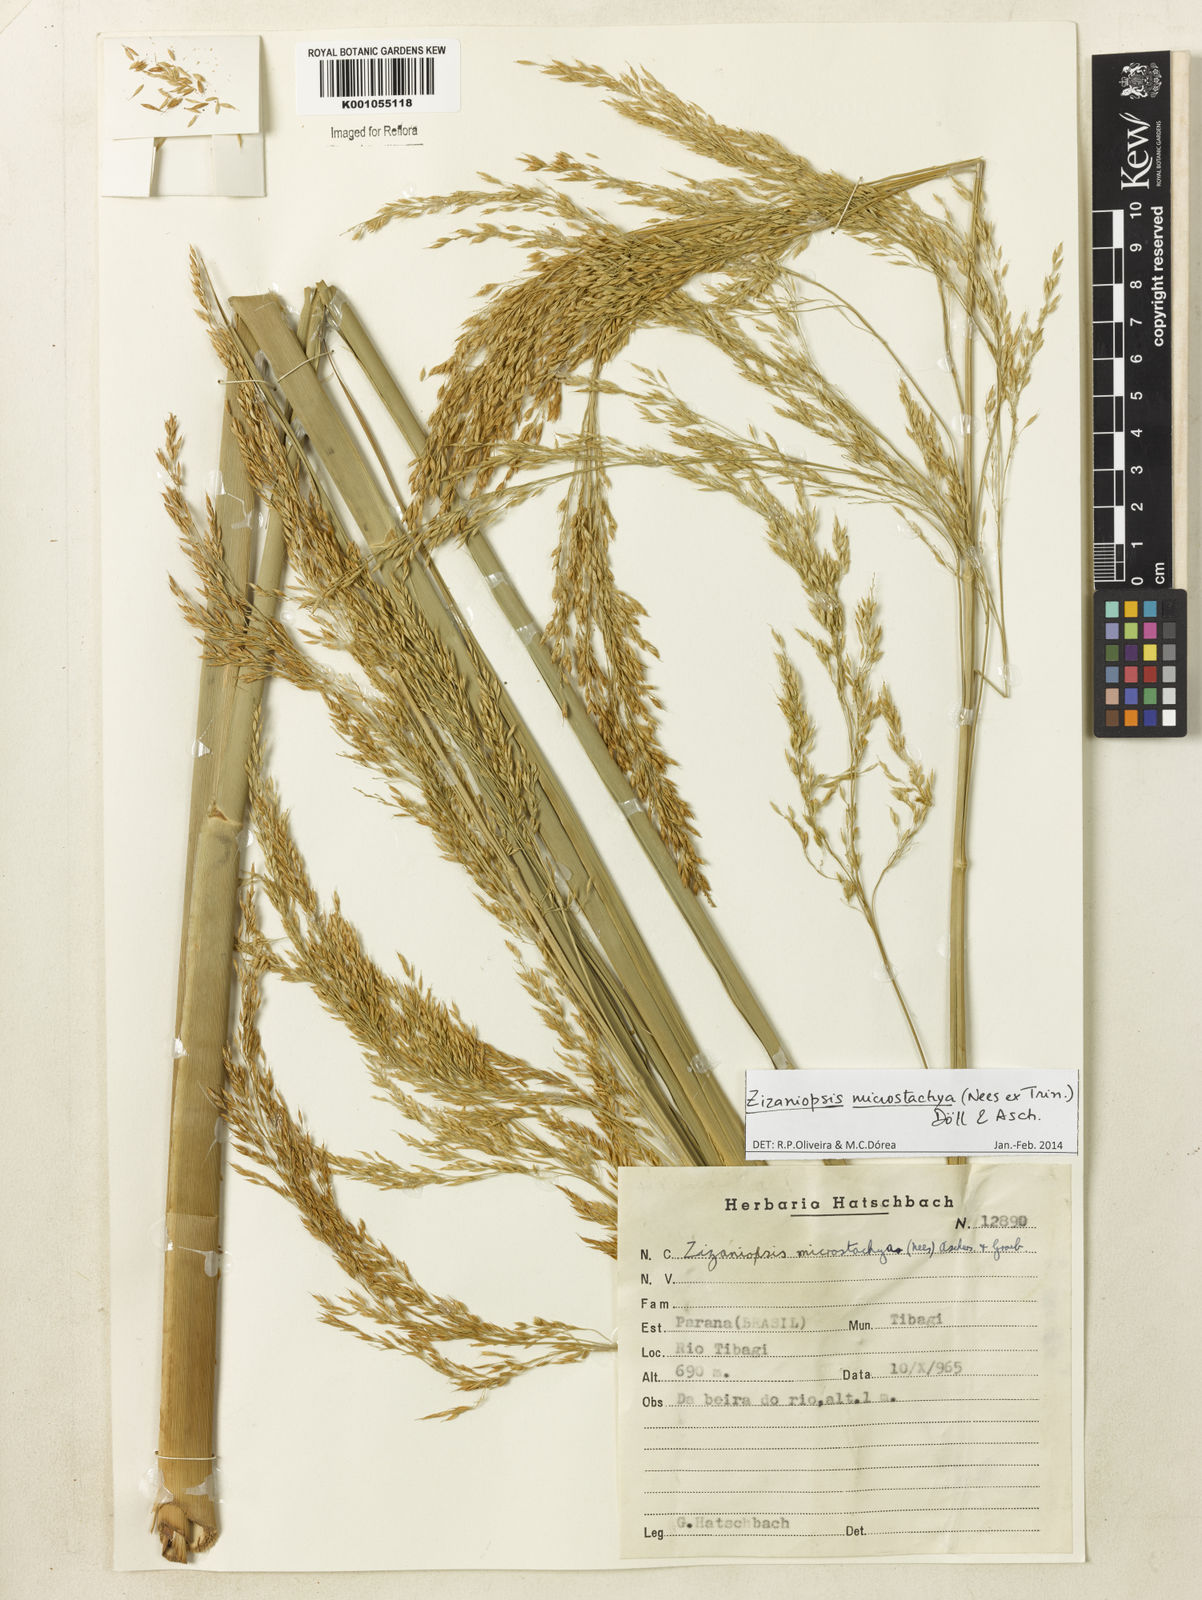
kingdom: Plantae
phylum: Tracheophyta
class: Liliopsida
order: Poales
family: Poaceae
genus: Zizaniopsis
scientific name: Zizaniopsis
